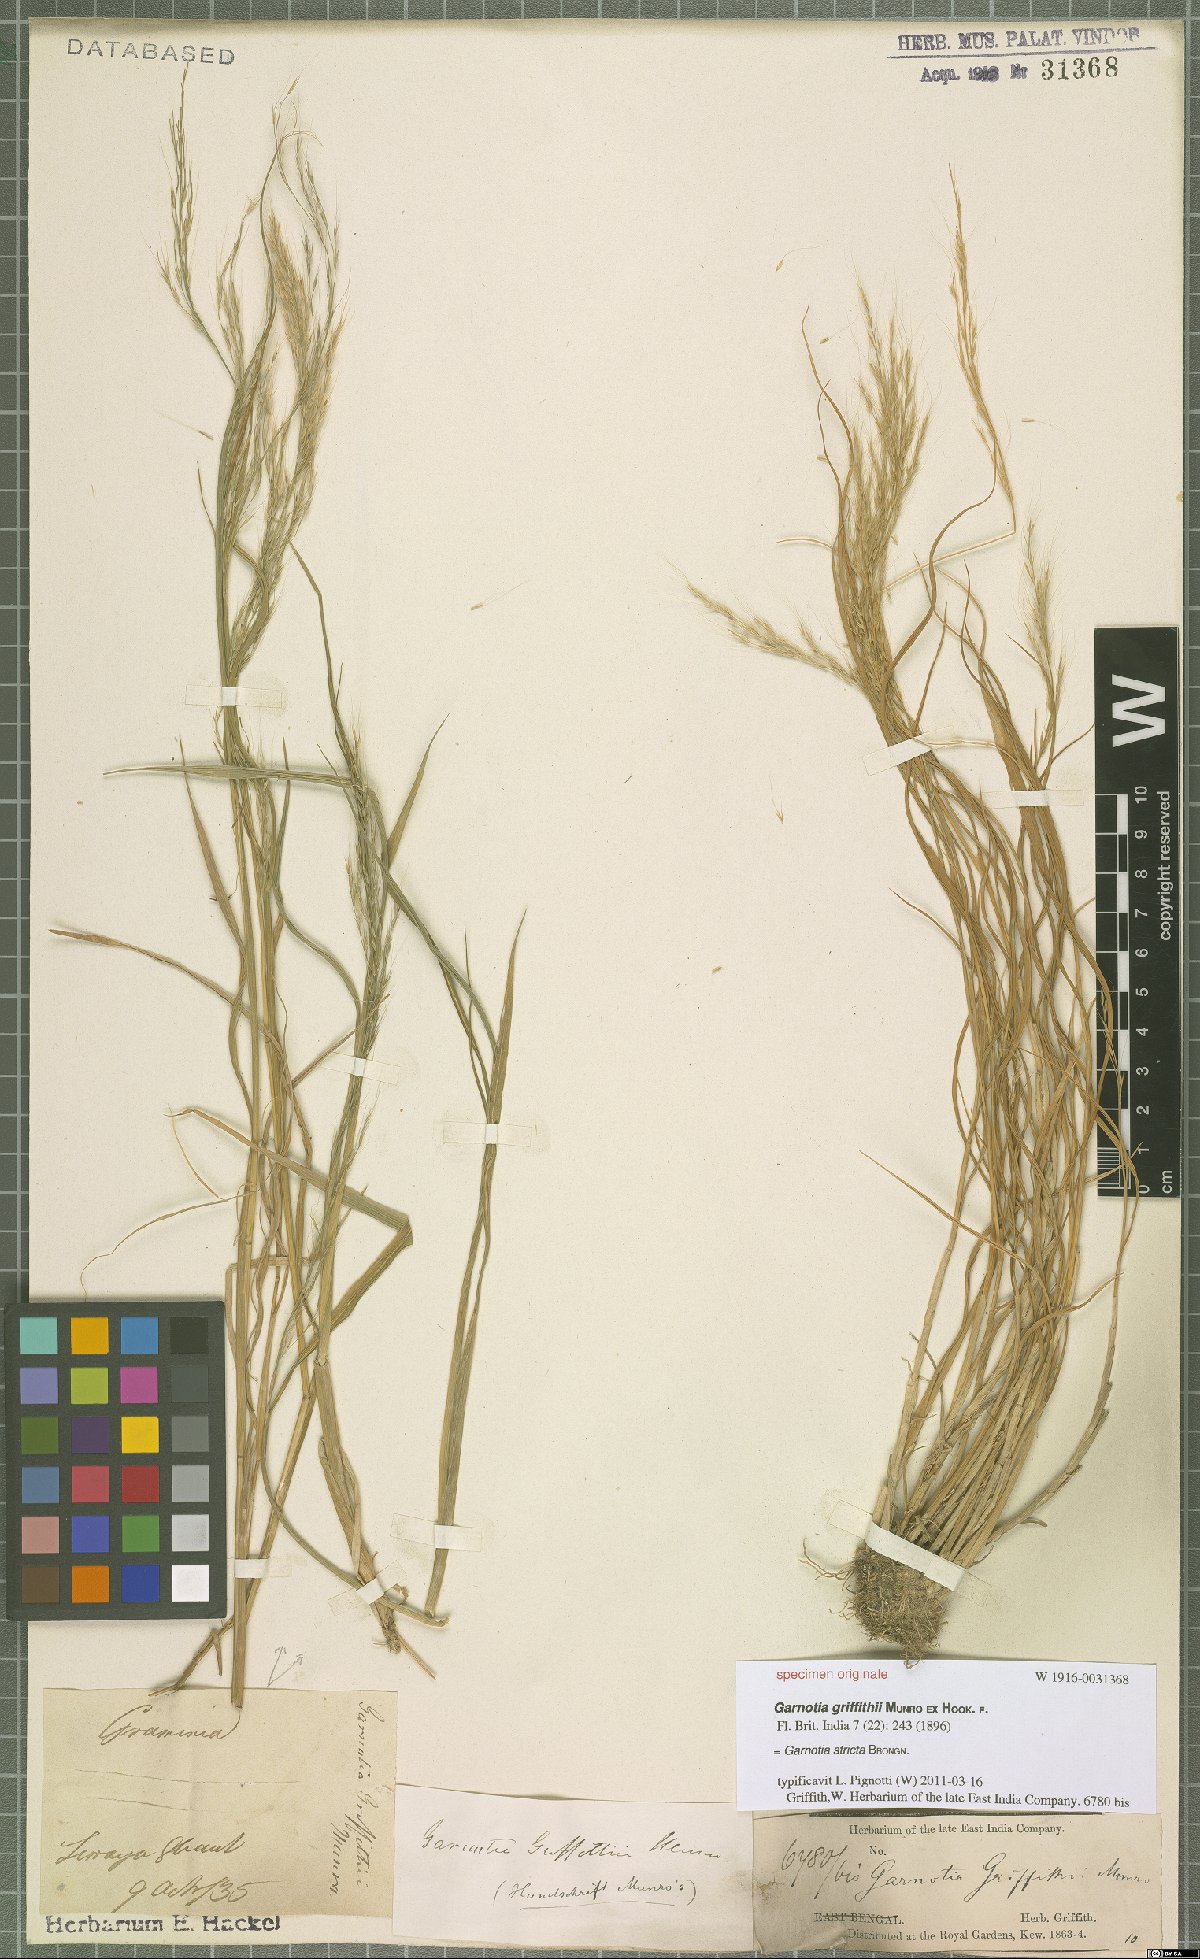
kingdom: Plantae
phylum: Tracheophyta
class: Liliopsida
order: Poales
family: Poaceae
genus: Garnotia
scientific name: Garnotia stricta
